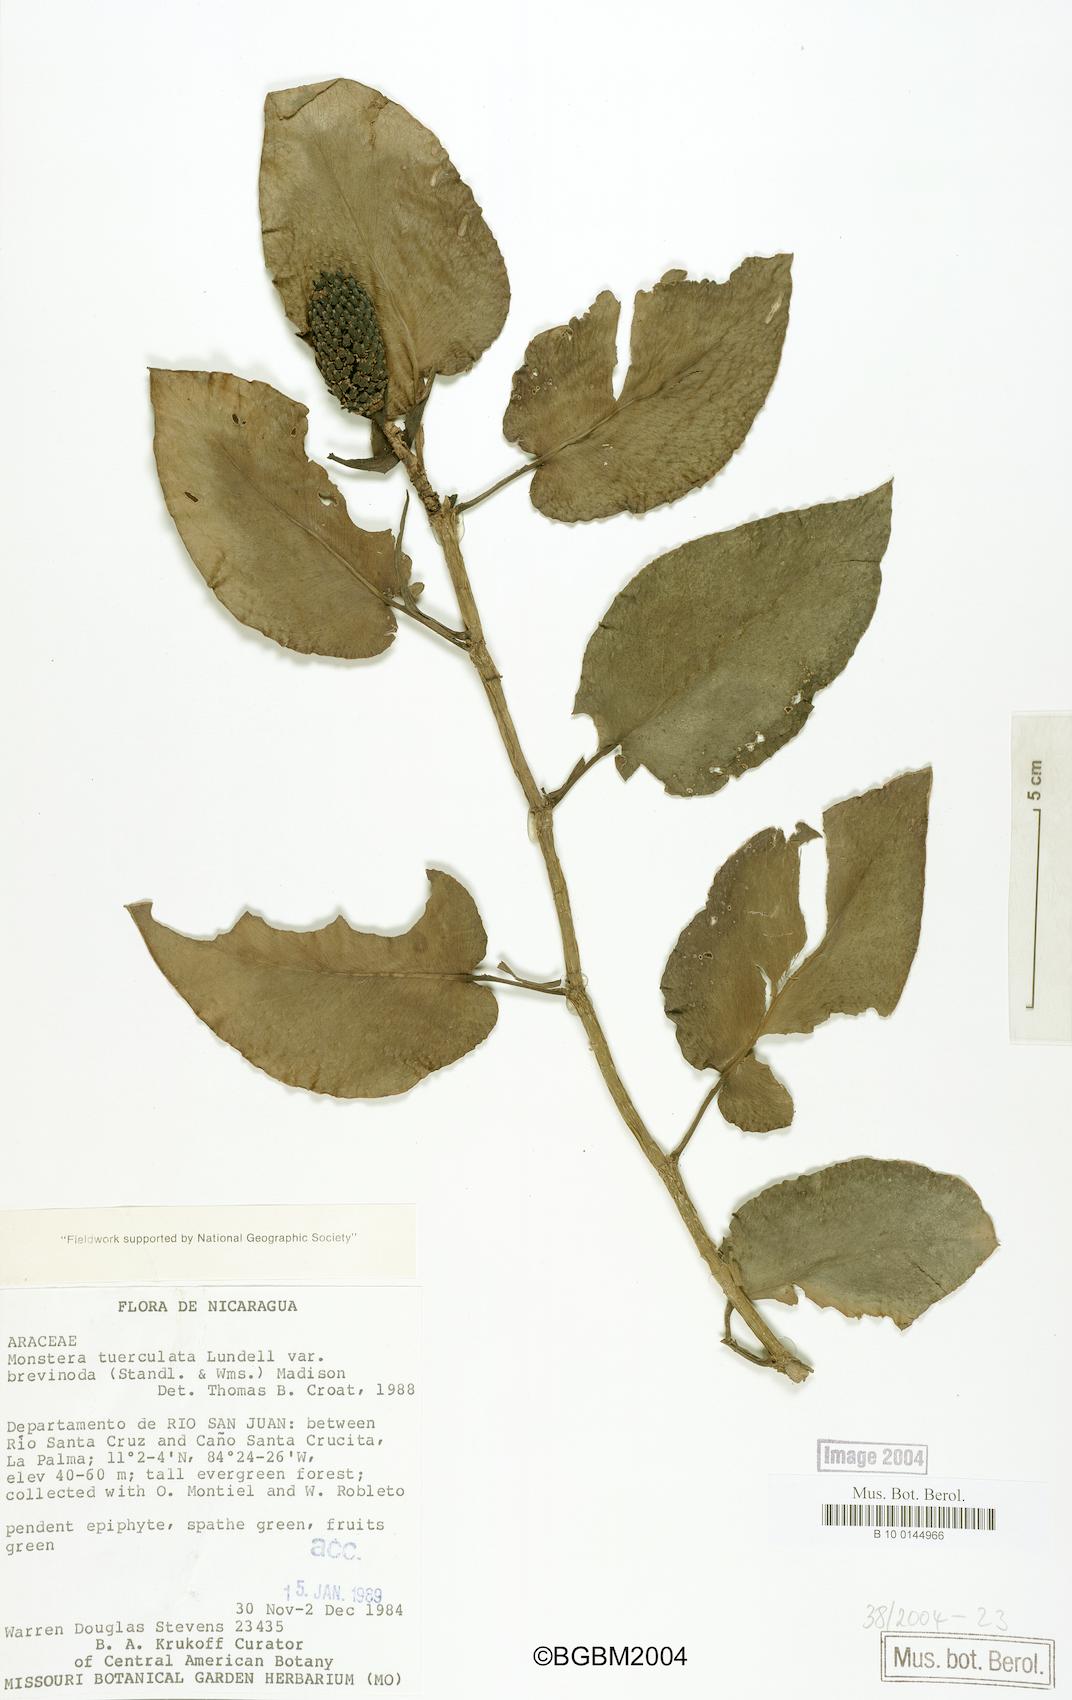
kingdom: Plantae
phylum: Tracheophyta
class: Liliopsida
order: Alismatales
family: Araceae
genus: Monstera
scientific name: Monstera tuberculata
